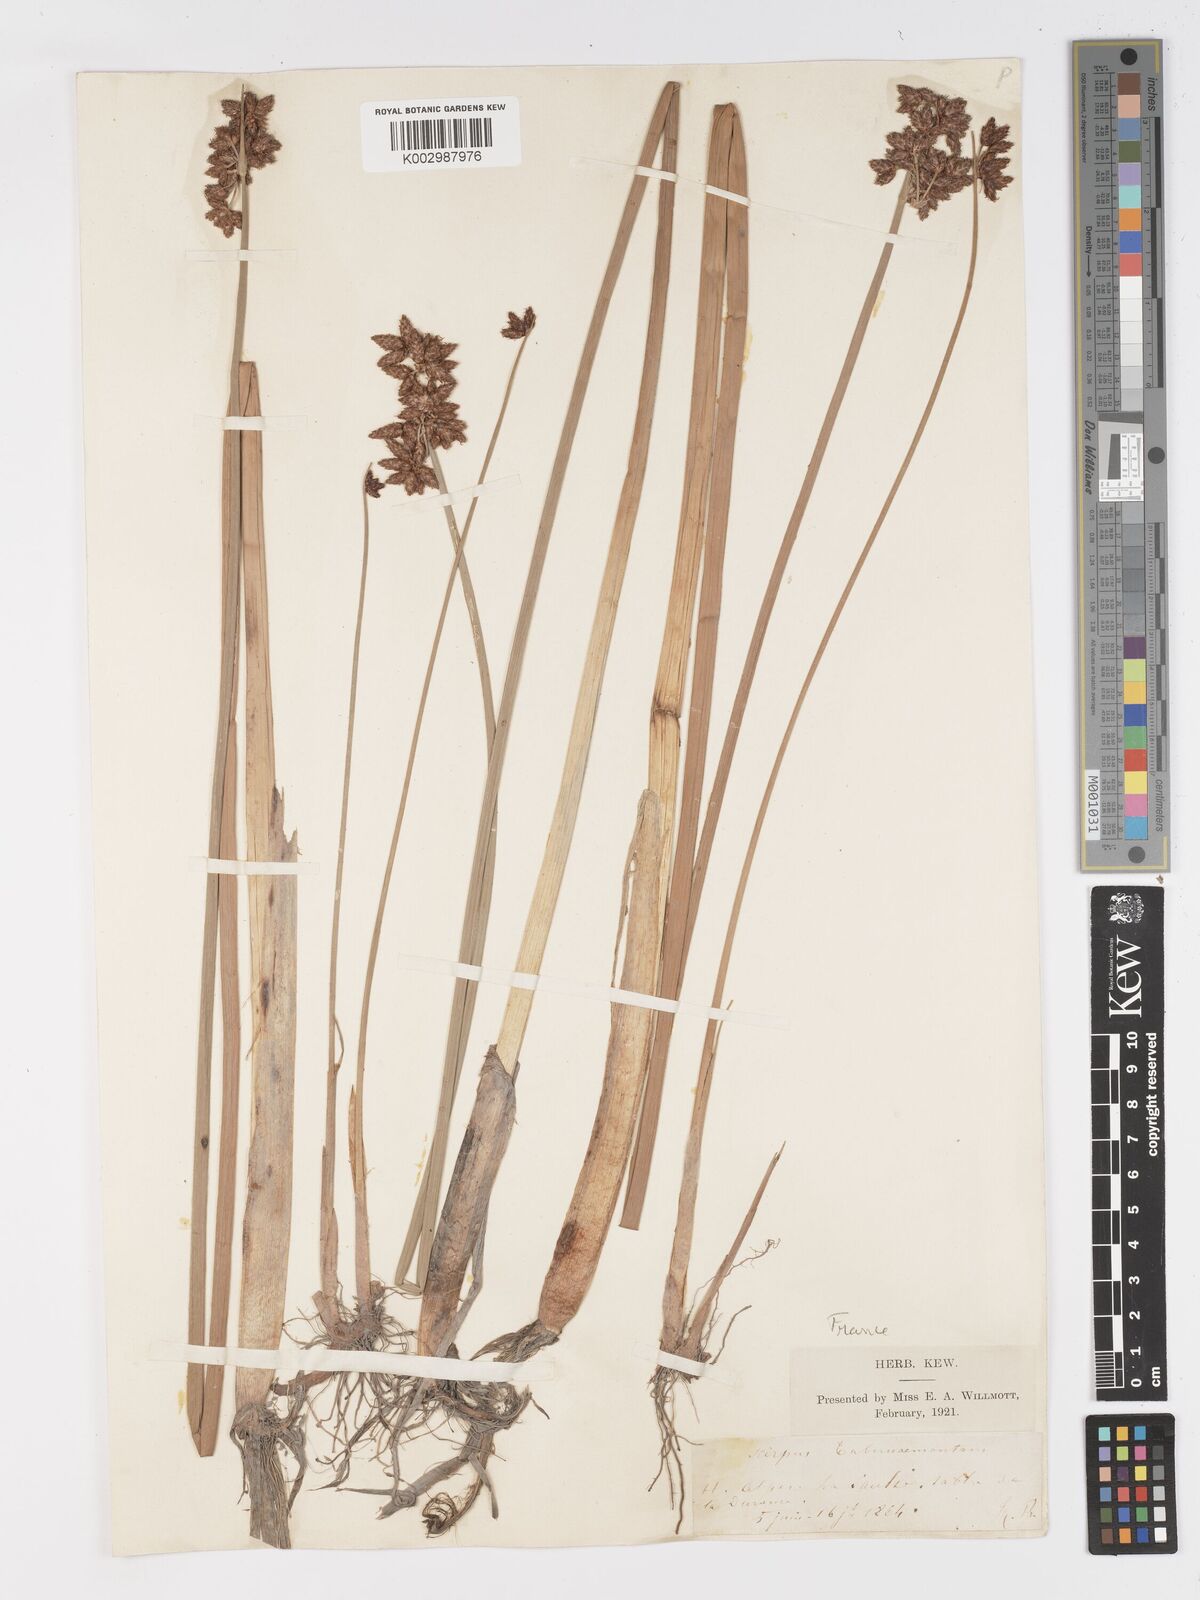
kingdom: Plantae
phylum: Tracheophyta
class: Liliopsida
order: Poales
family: Cyperaceae
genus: Schoenoplectus
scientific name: Schoenoplectus tabernaemontani
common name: Grey club-rush
